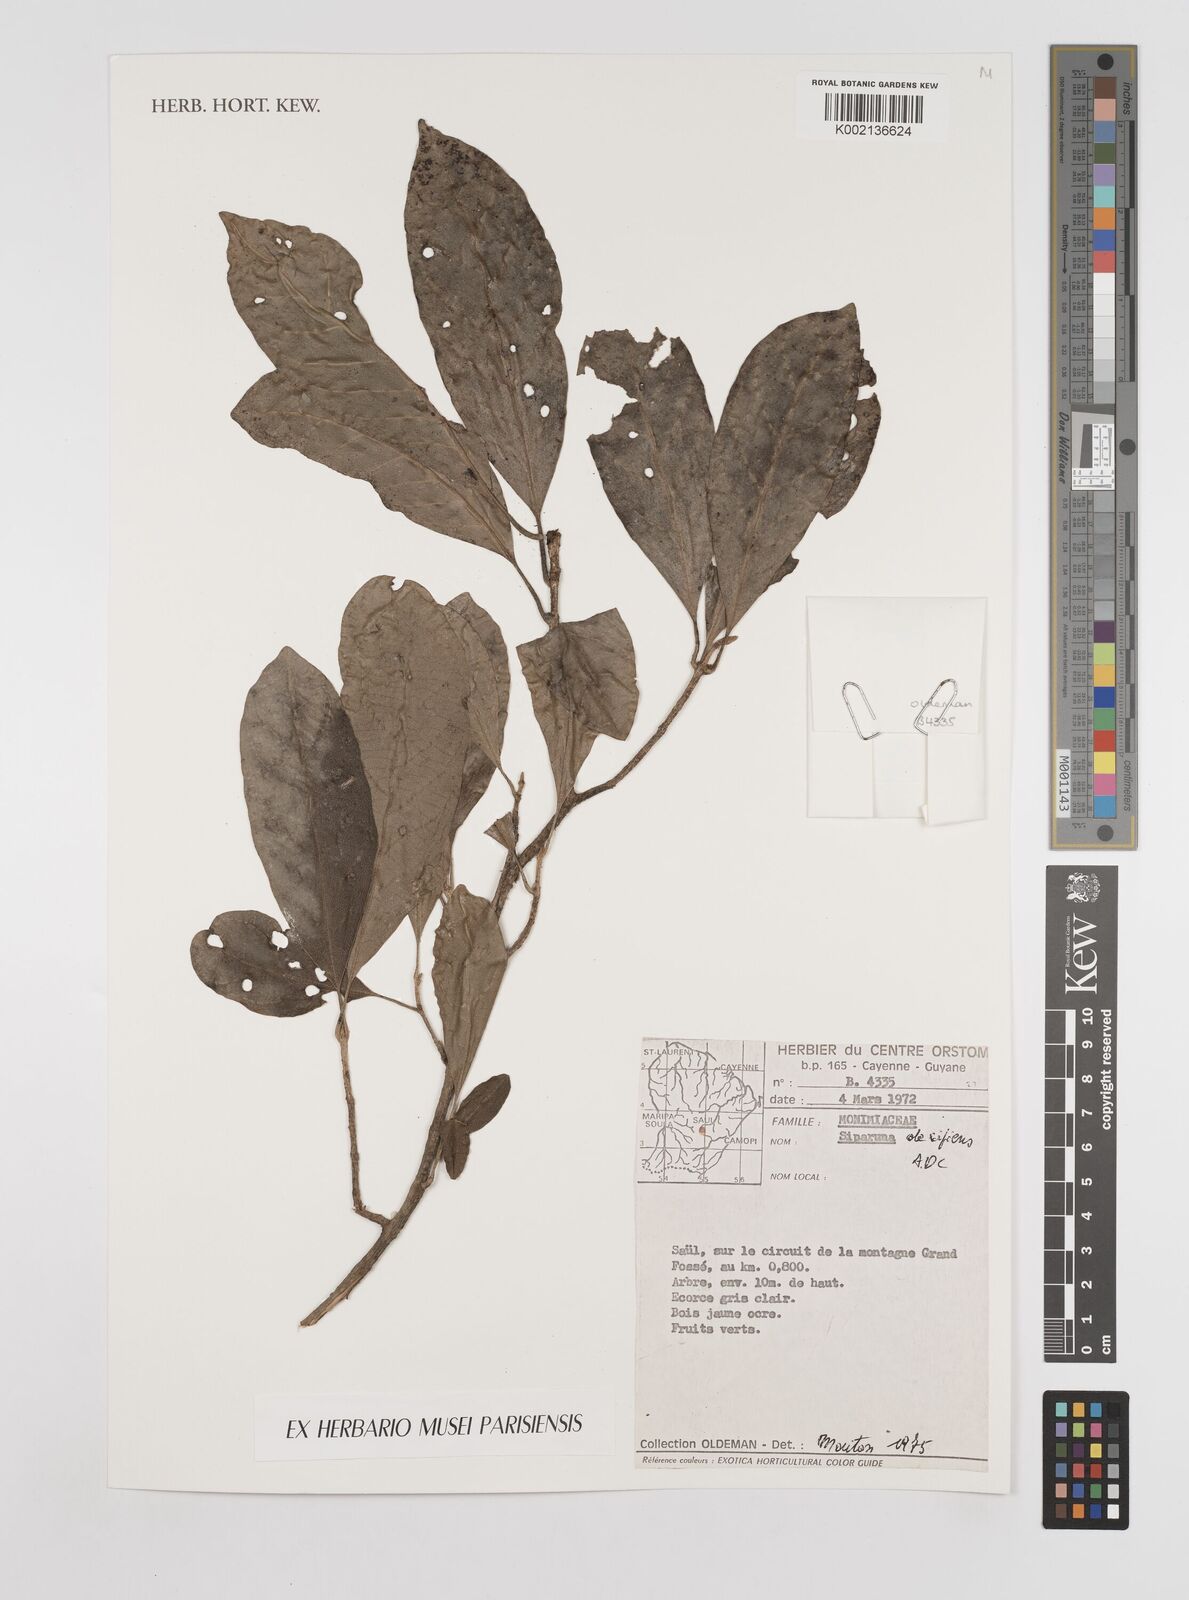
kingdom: Plantae
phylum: Tracheophyta
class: Magnoliopsida
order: Laurales
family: Siparunaceae
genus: Siparuna
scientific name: Siparuna decipiens
